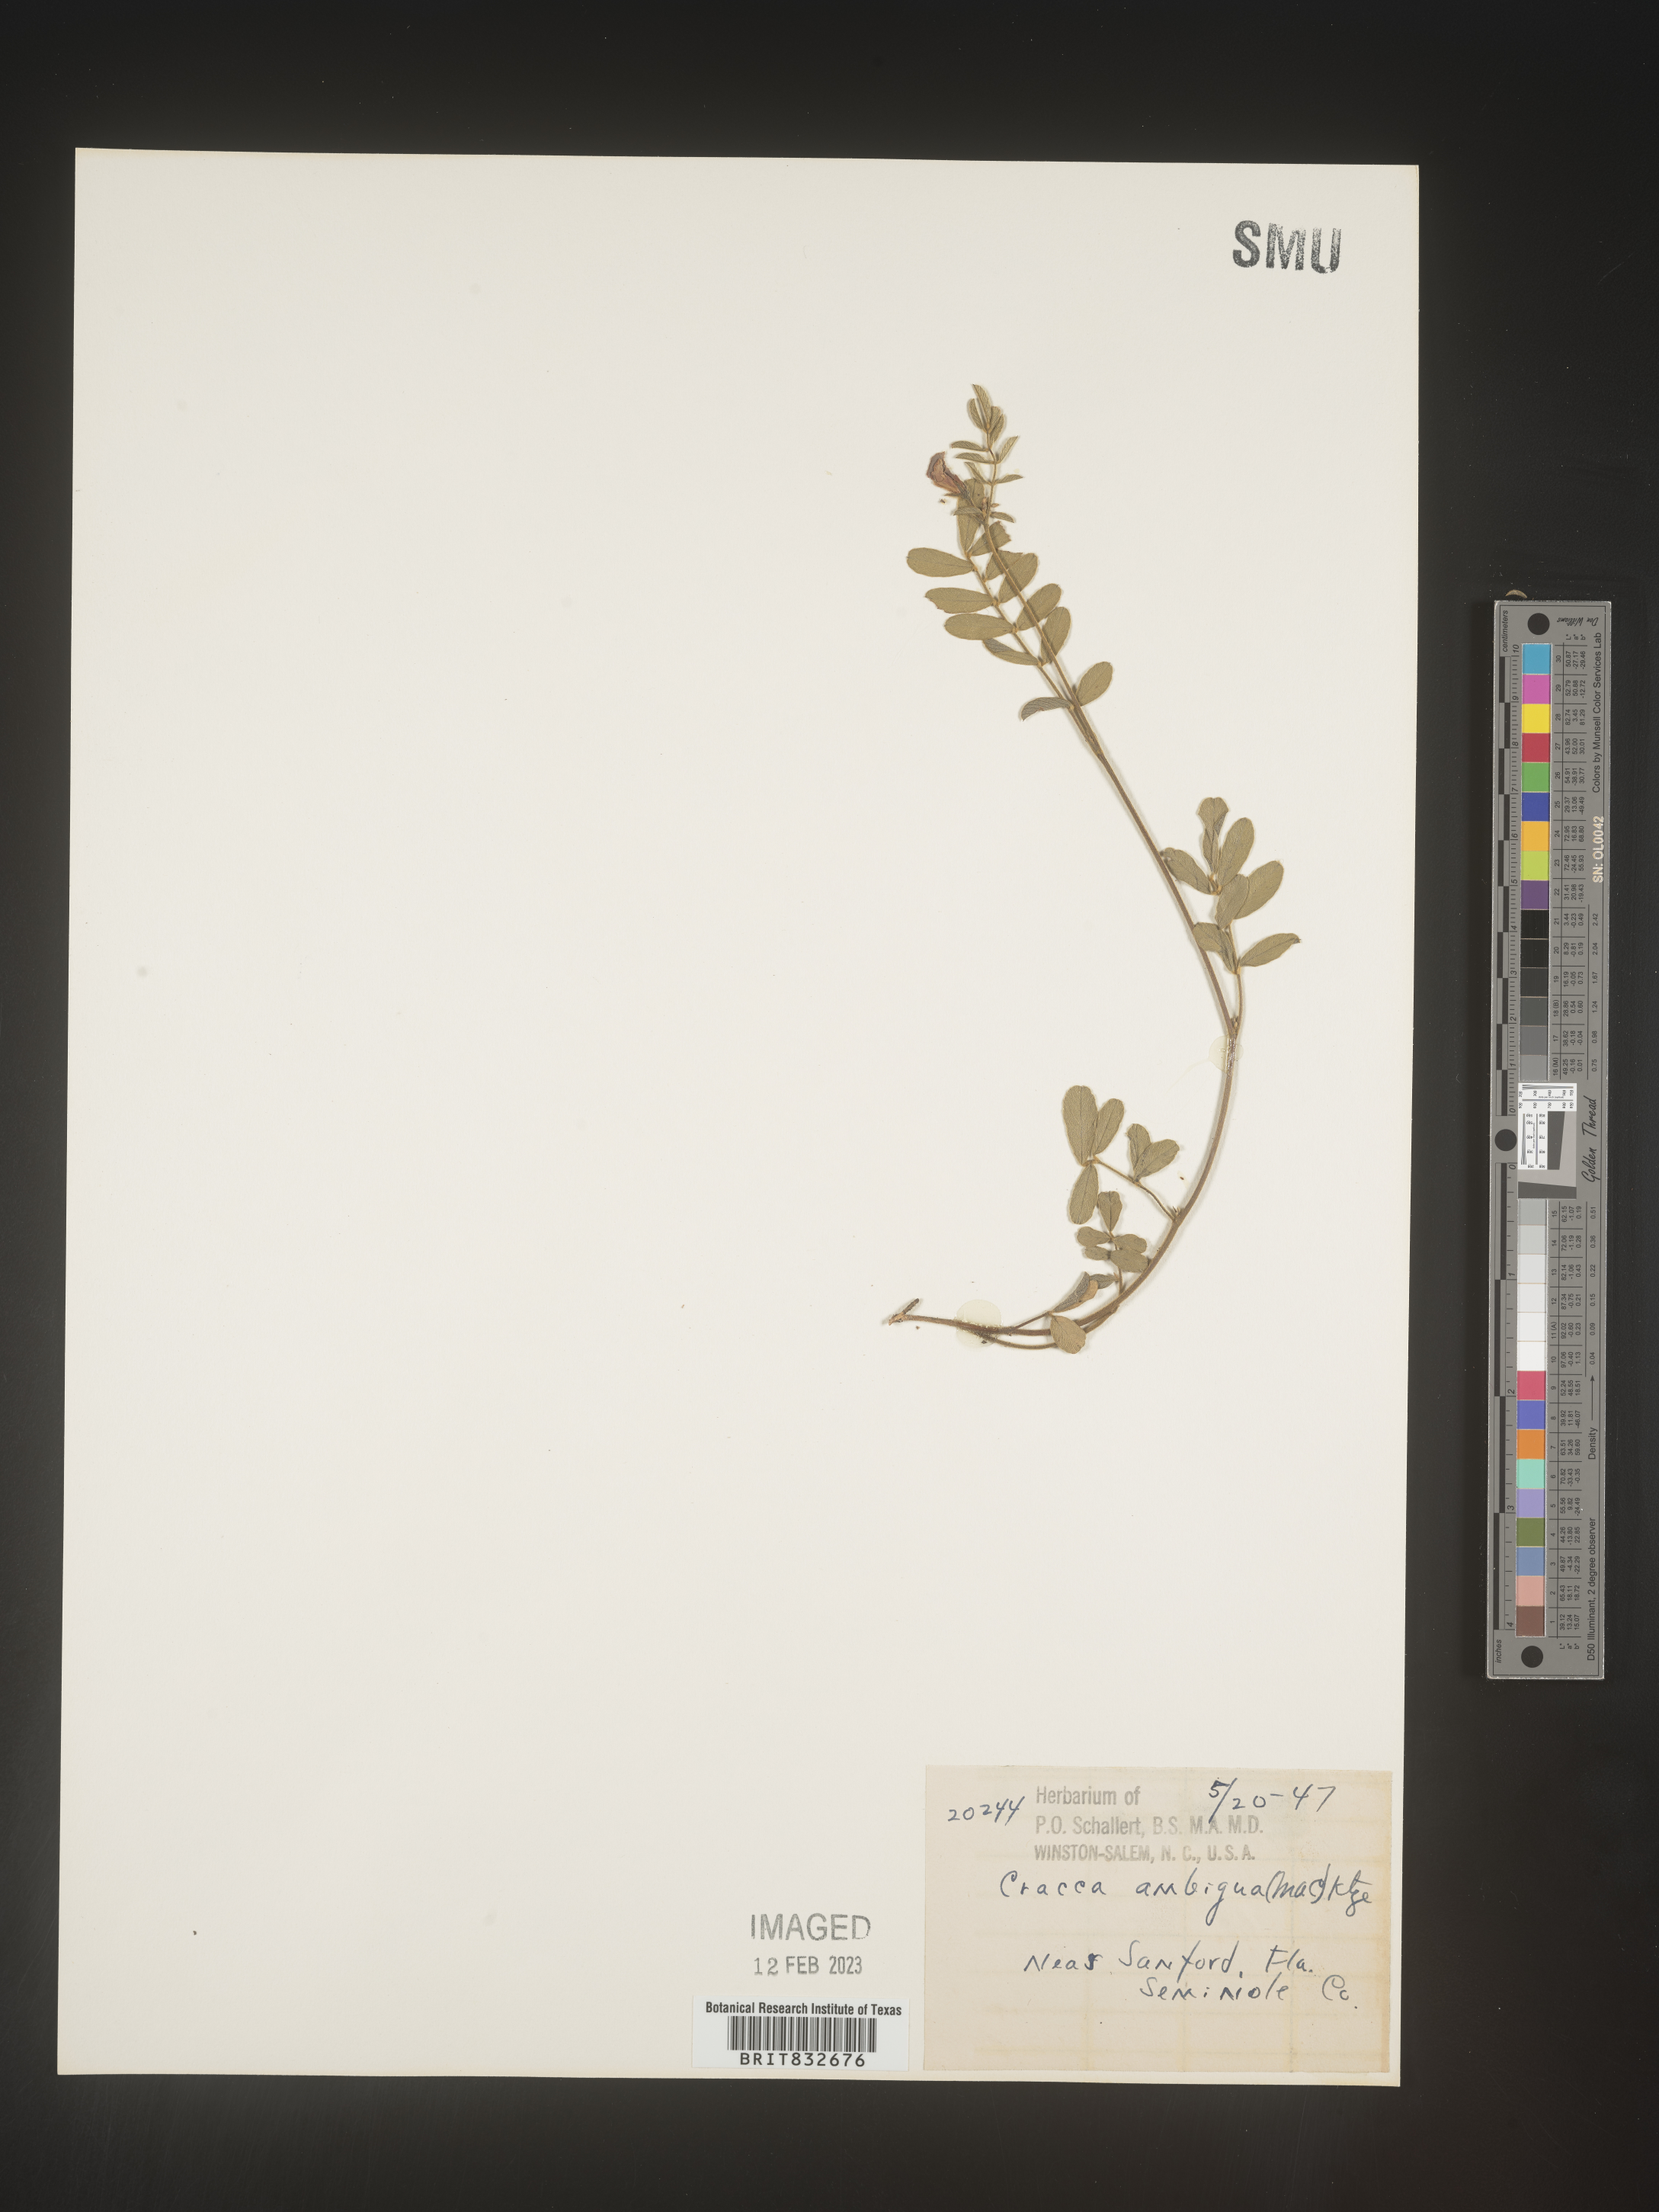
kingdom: Plantae
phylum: Tracheophyta
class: Magnoliopsida
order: Fabales
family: Fabaceae
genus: Tephrosia
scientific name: Tephrosia spicata
